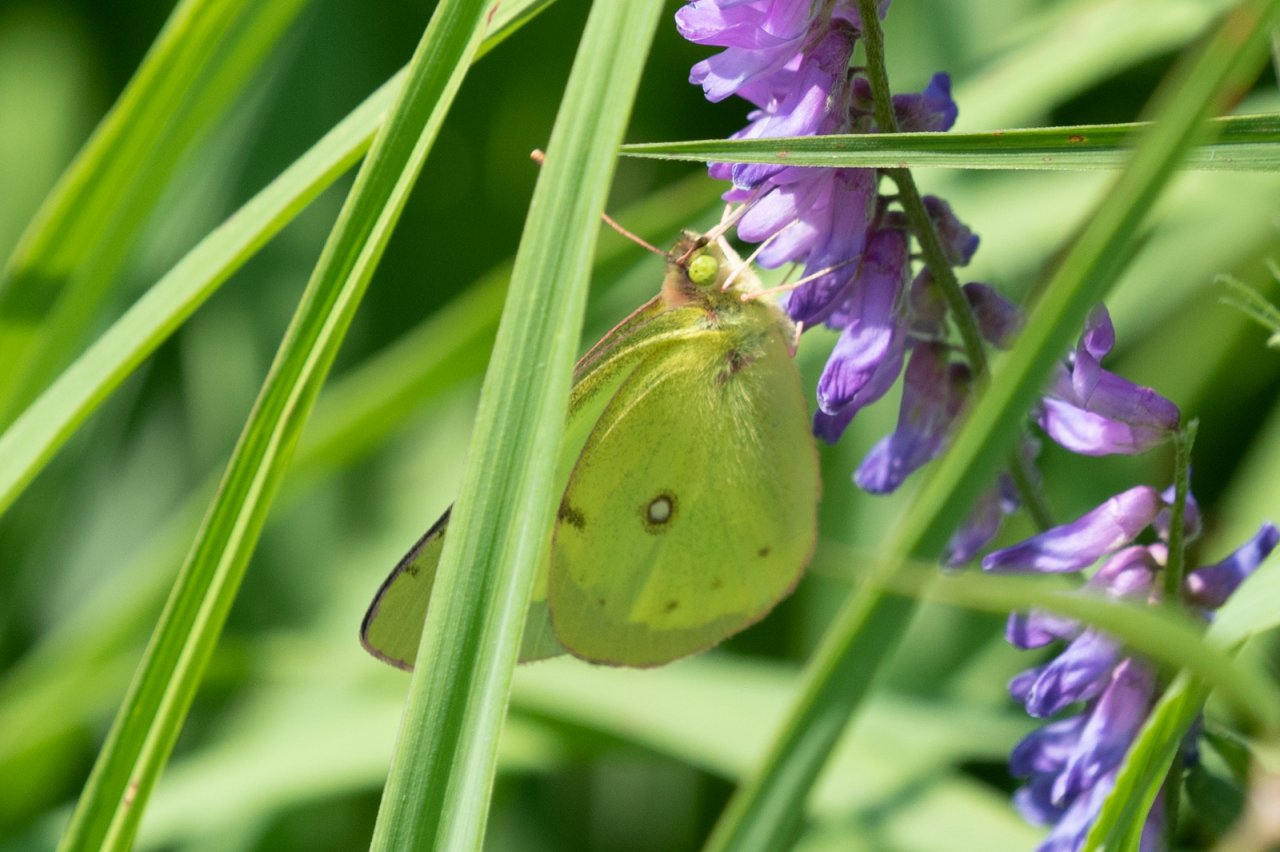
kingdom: Animalia
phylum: Arthropoda
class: Insecta
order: Lepidoptera
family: Pieridae
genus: Colias
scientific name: Colias philodice
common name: Clouded Sulphur
